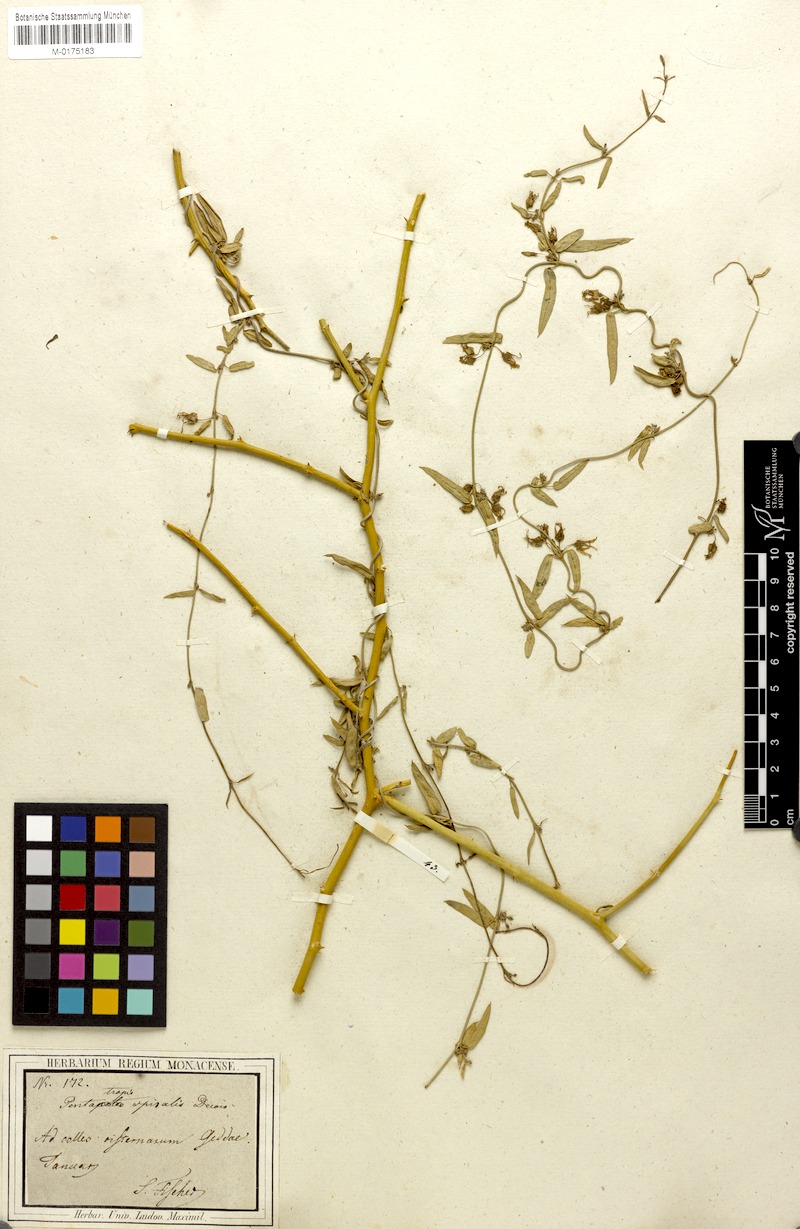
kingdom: Plantae
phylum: Tracheophyta
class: Magnoliopsida
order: Gentianales
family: Apocynaceae
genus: Vincetoxicum
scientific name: Vincetoxicum spirale
